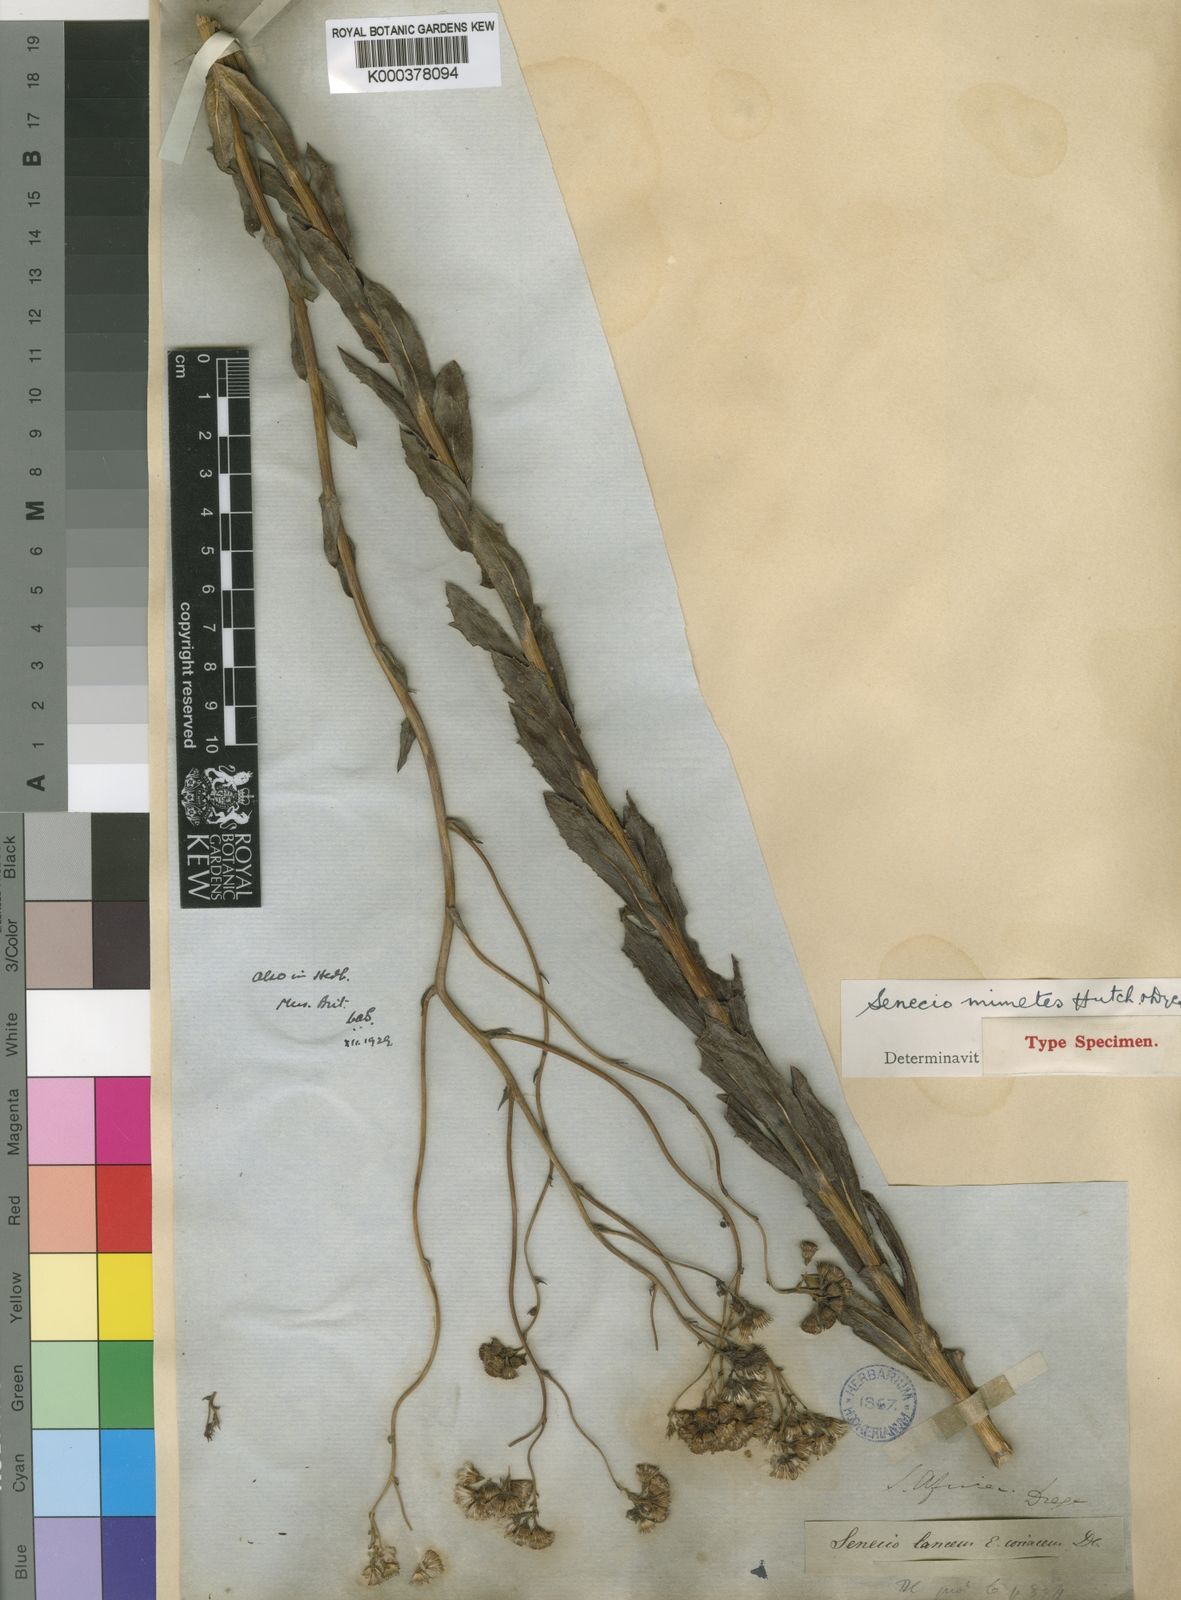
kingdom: Plantae
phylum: Tracheophyta
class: Magnoliopsida
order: Asterales
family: Asteraceae
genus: Senecio
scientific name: Senecio mimetes
